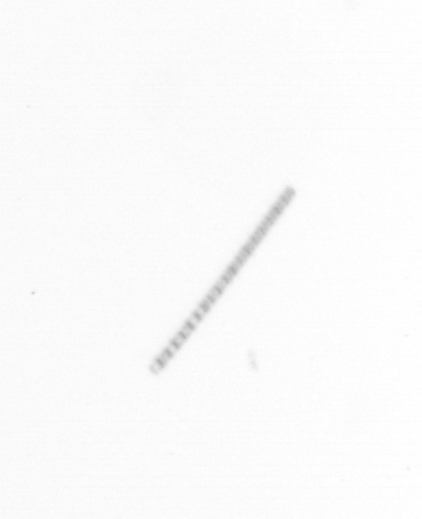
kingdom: Chromista
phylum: Ochrophyta
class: Bacillariophyceae
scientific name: Bacillariophyceae
